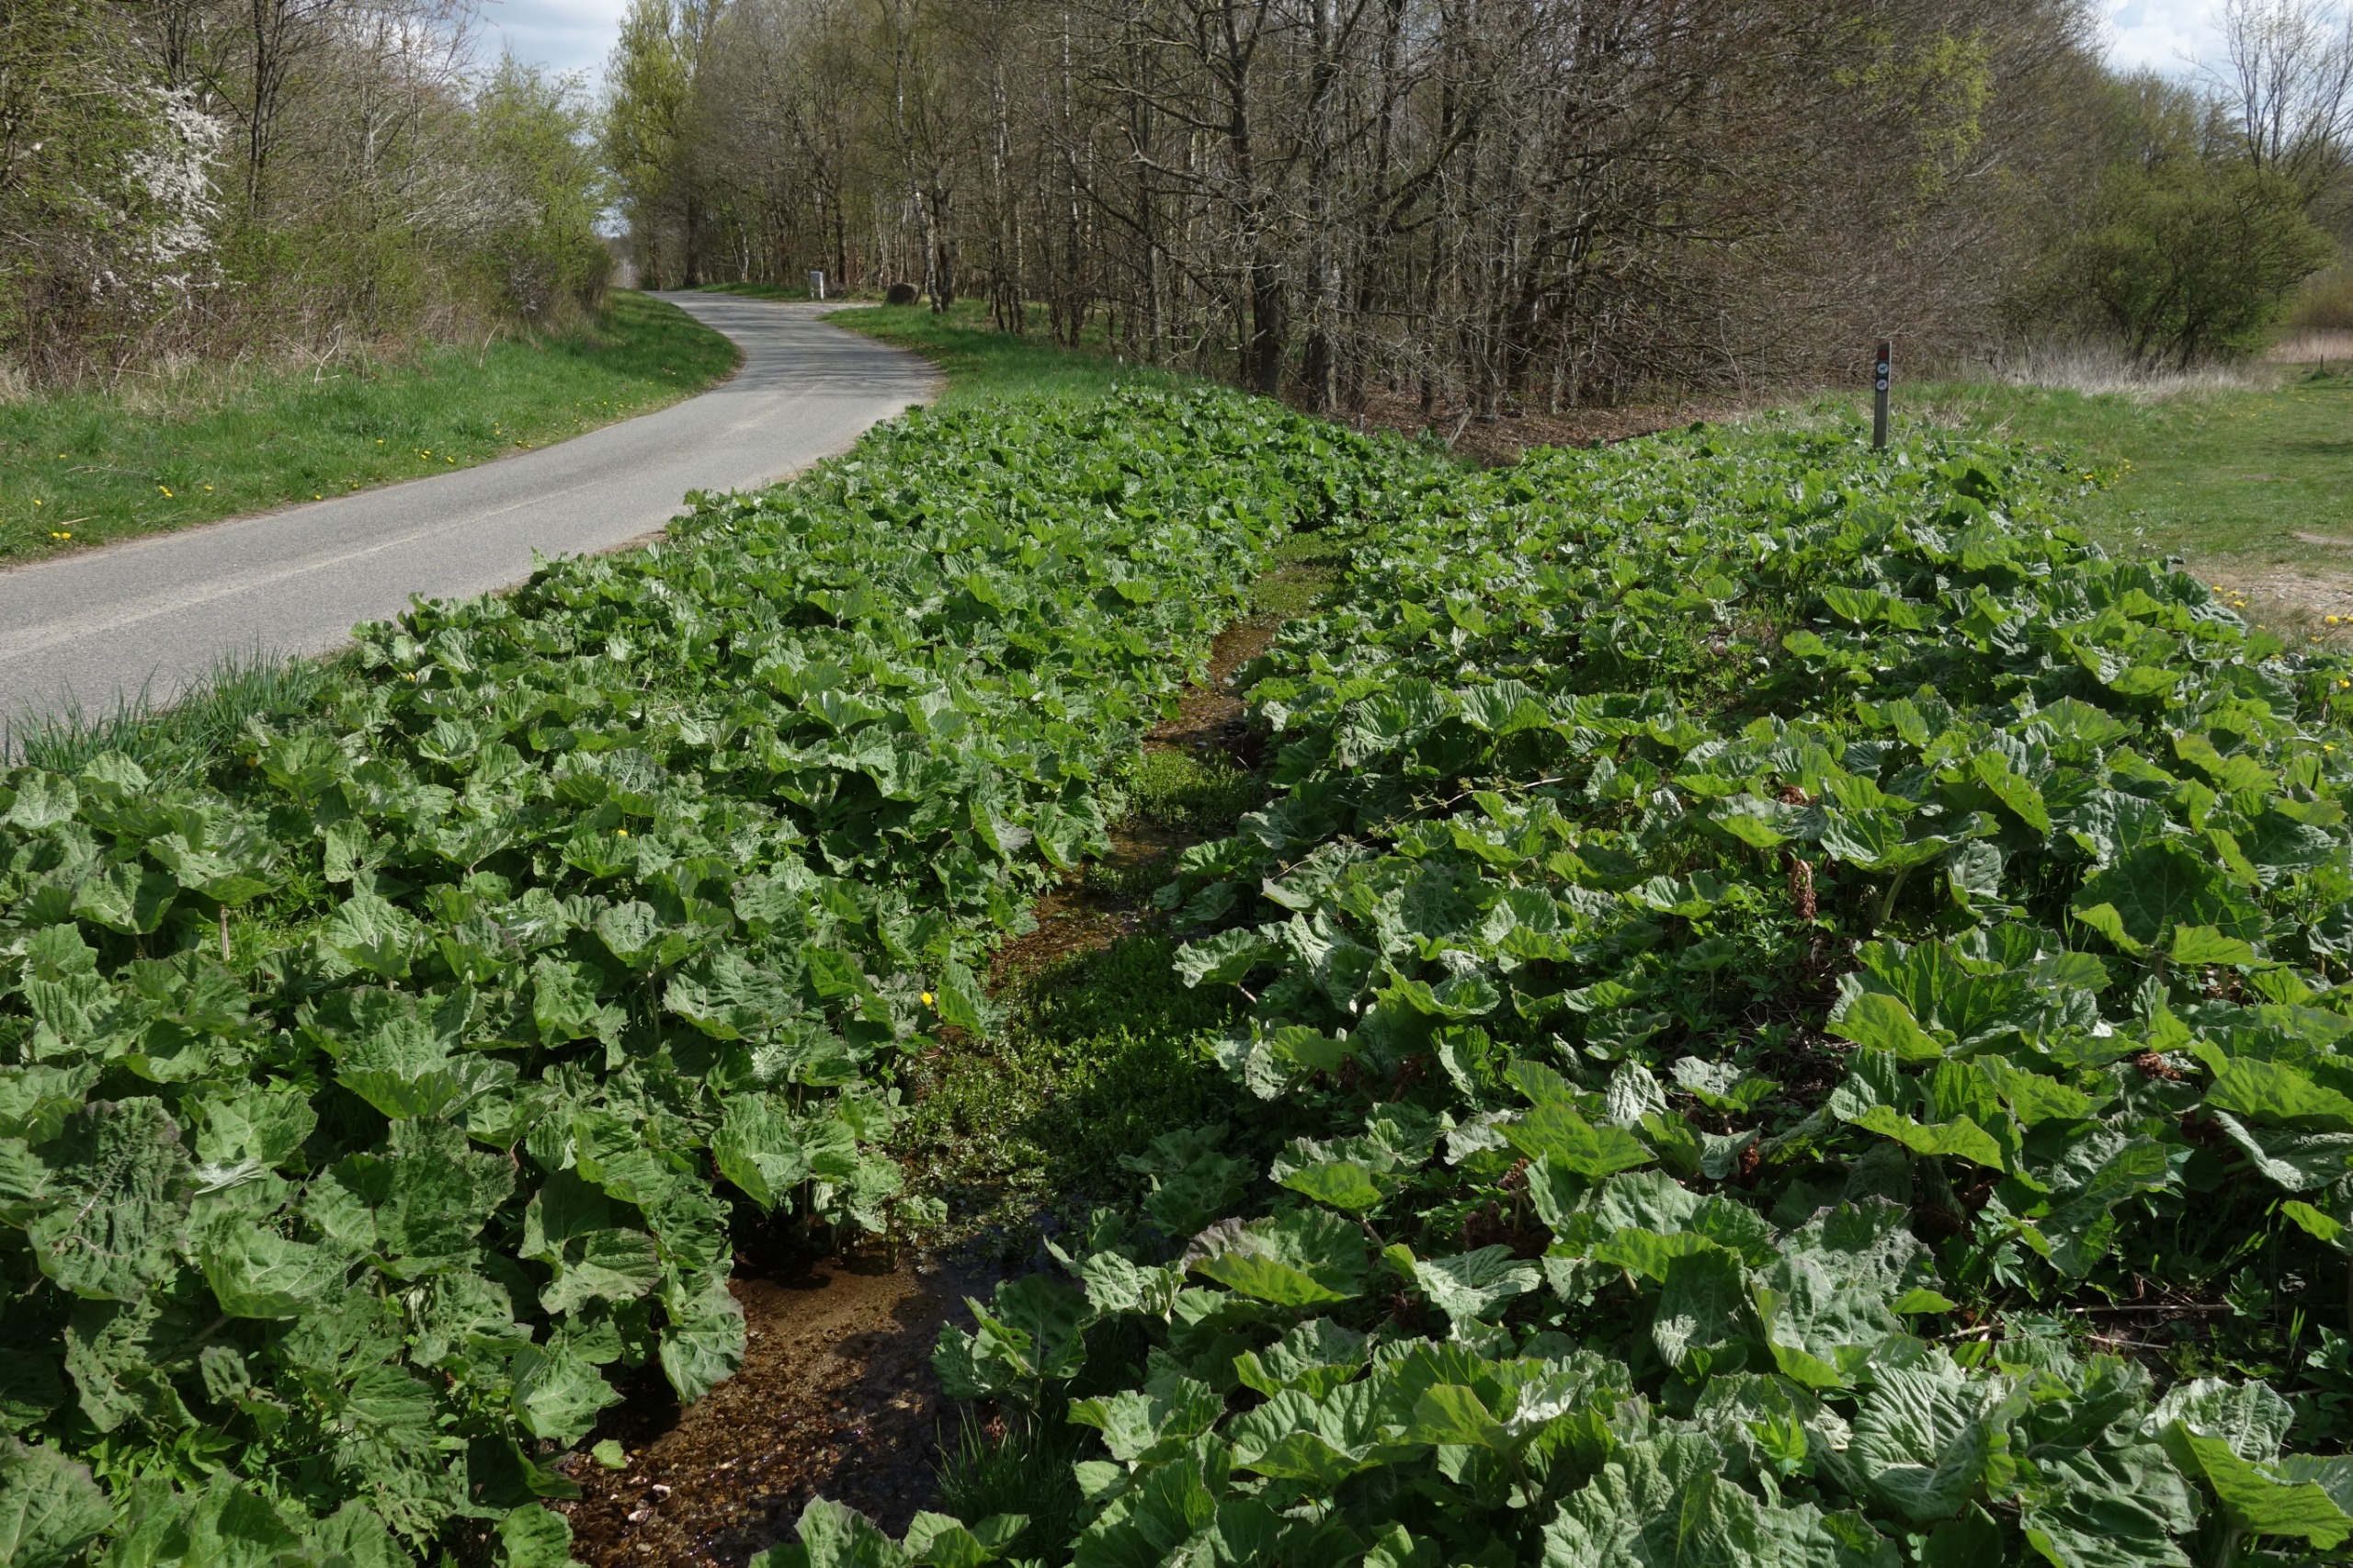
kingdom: Plantae
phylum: Tracheophyta
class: Magnoliopsida
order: Asterales
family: Asteraceae
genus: Petasites
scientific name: Petasites hybridus
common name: Rød hestehov
